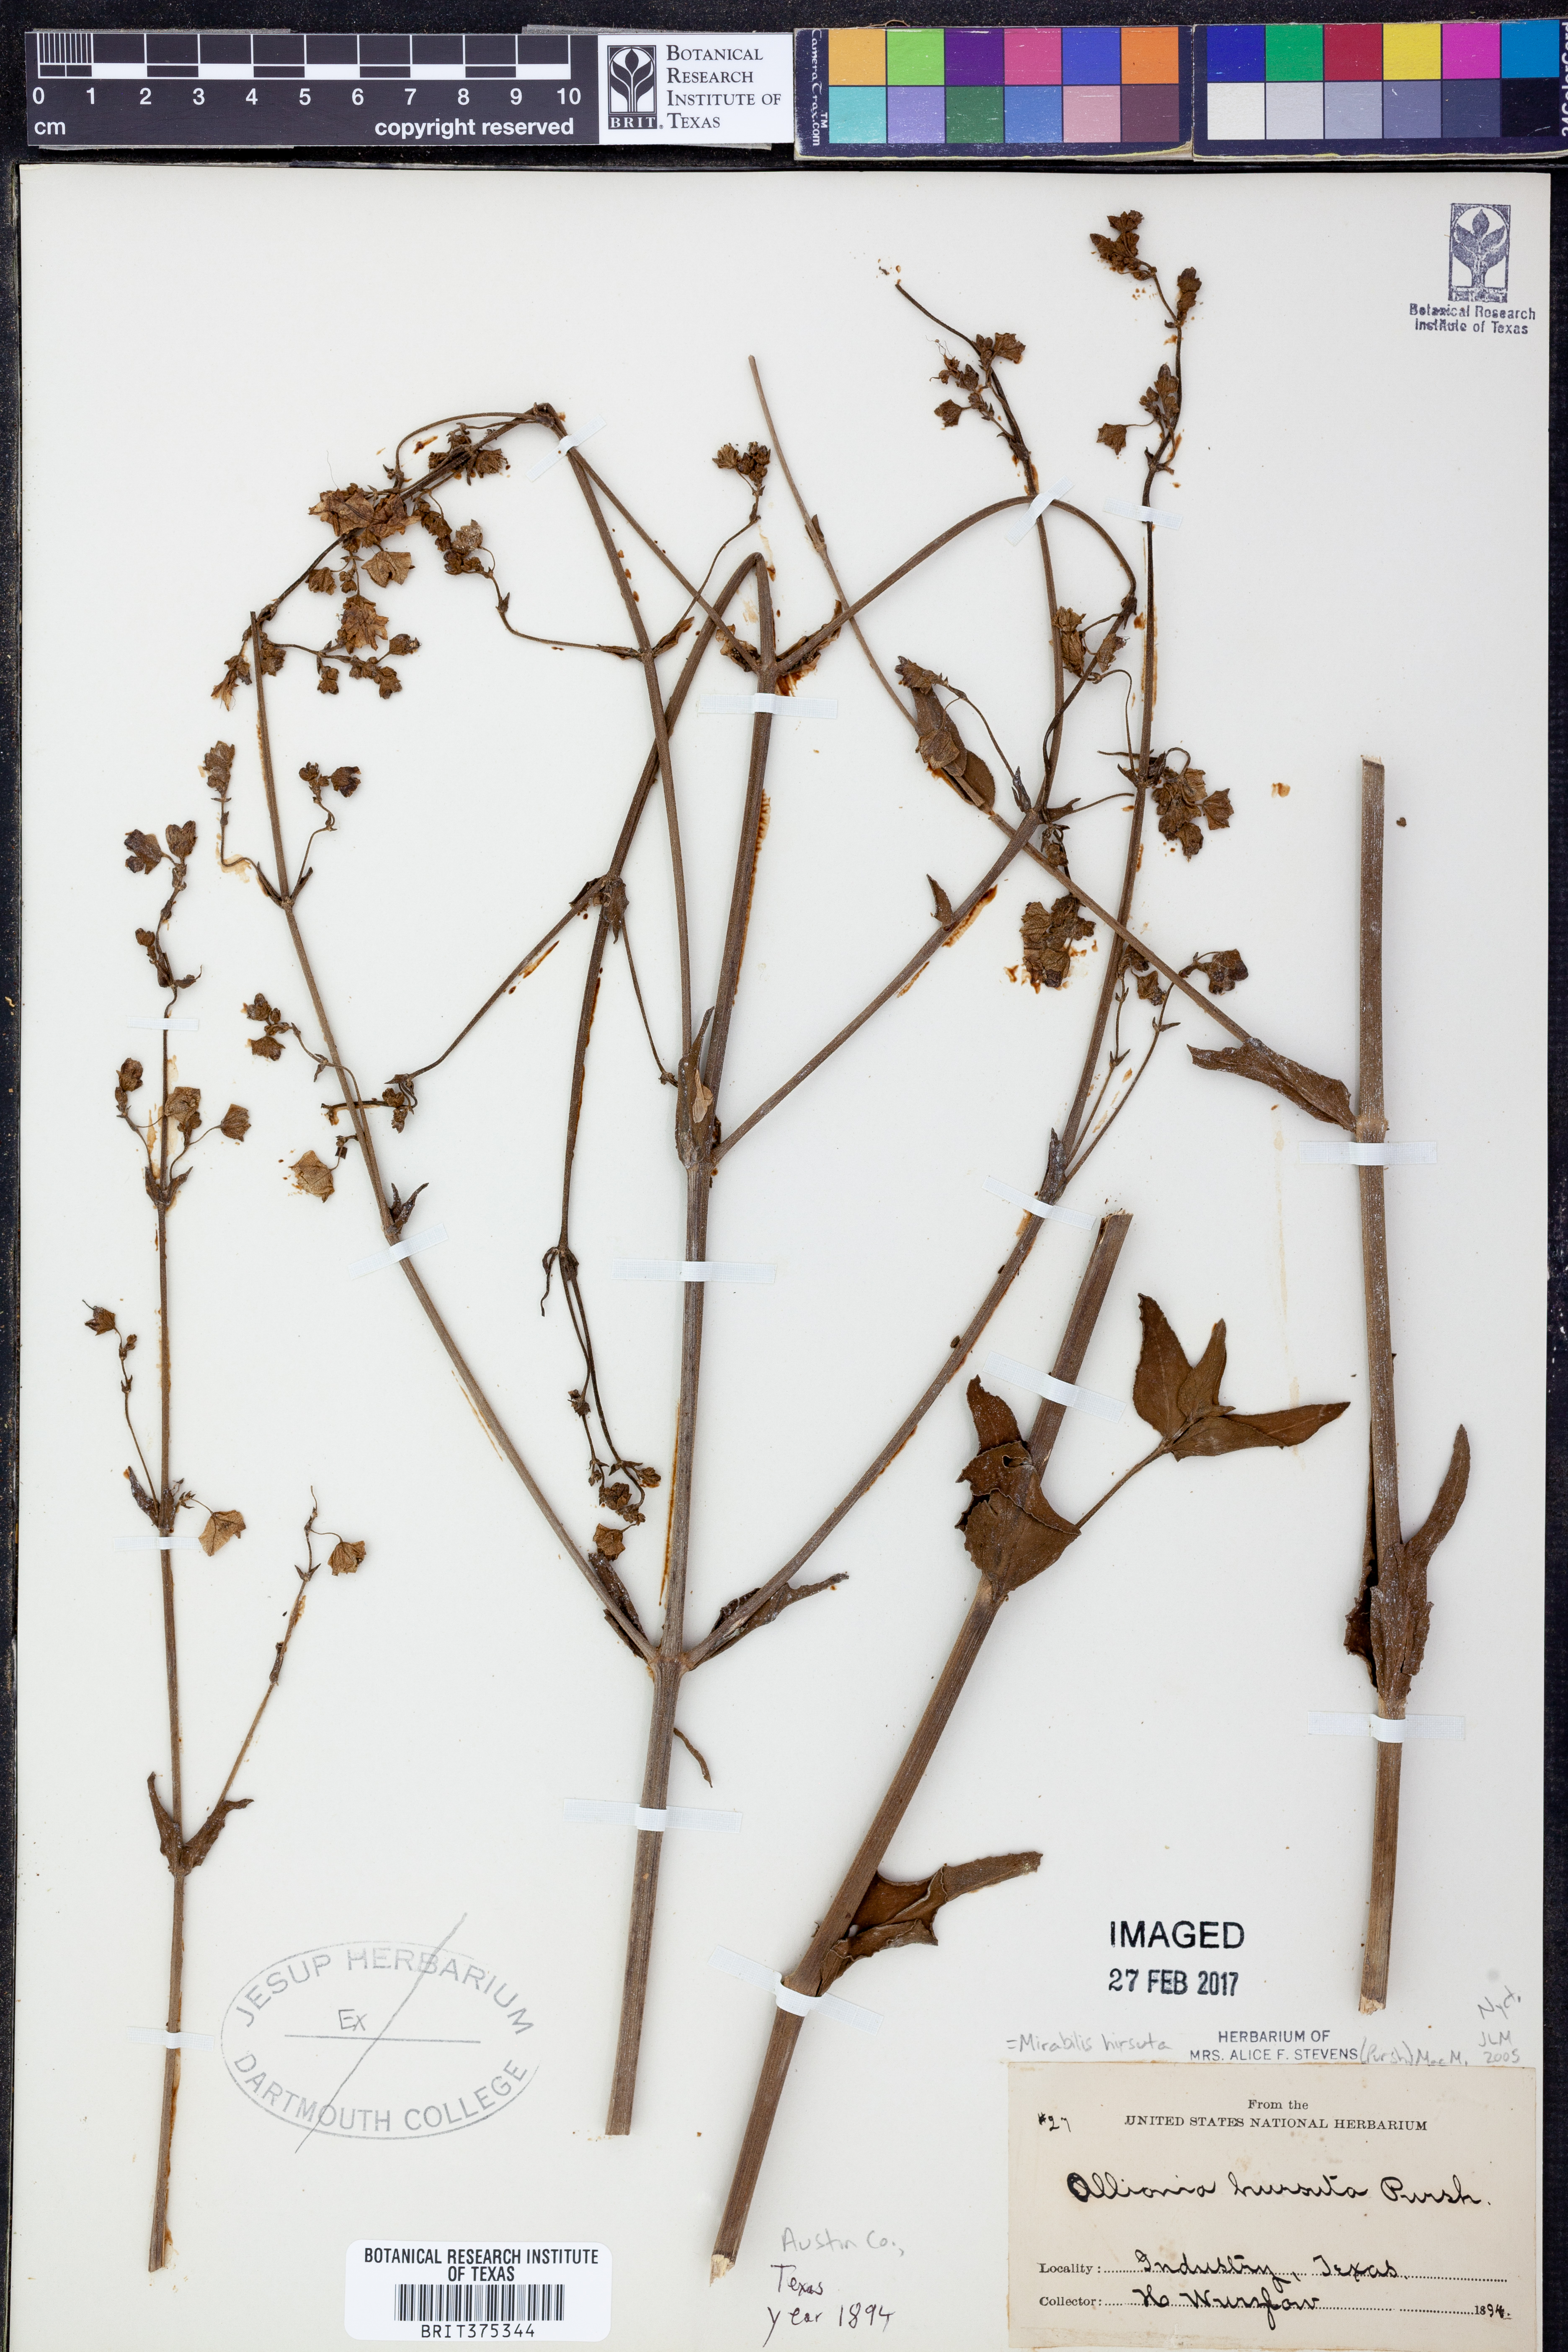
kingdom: Plantae
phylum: Tracheophyta
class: Magnoliopsida
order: Caryophyllales
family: Nyctaginaceae
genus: Mirabilis
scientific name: Mirabilis albida
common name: Hairy four-o'clock
